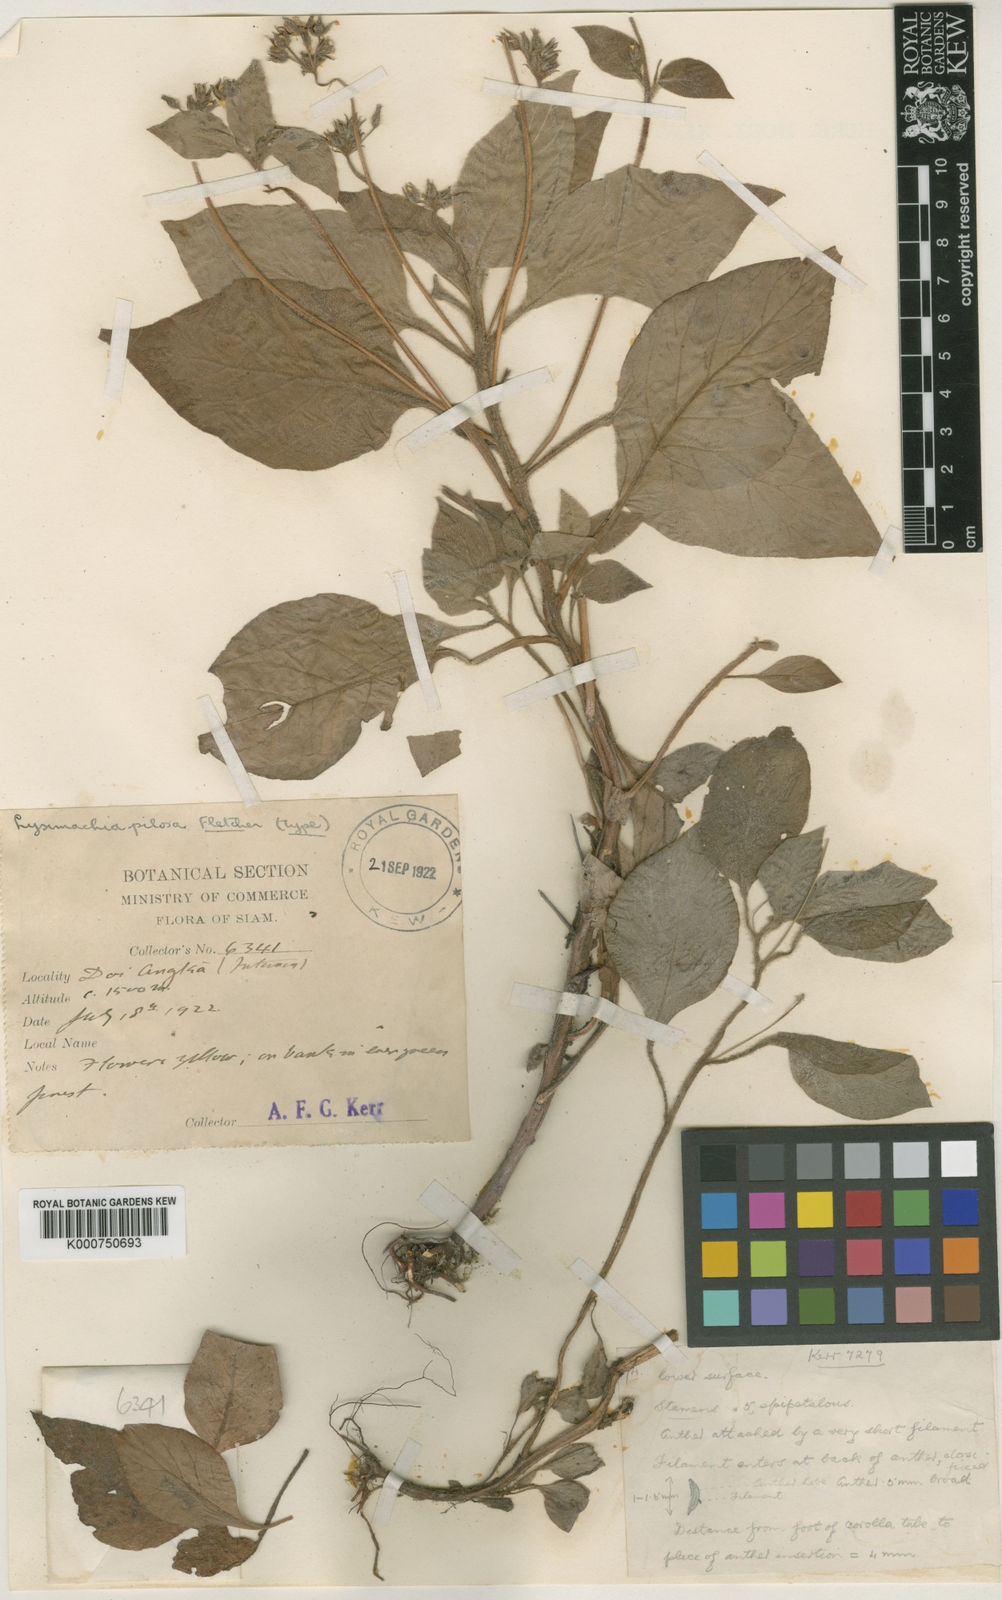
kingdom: Plantae
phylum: Tracheophyta
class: Magnoliopsida
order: Ericales
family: Primulaceae
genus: Lysimachia
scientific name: Lysimachia pilosa
